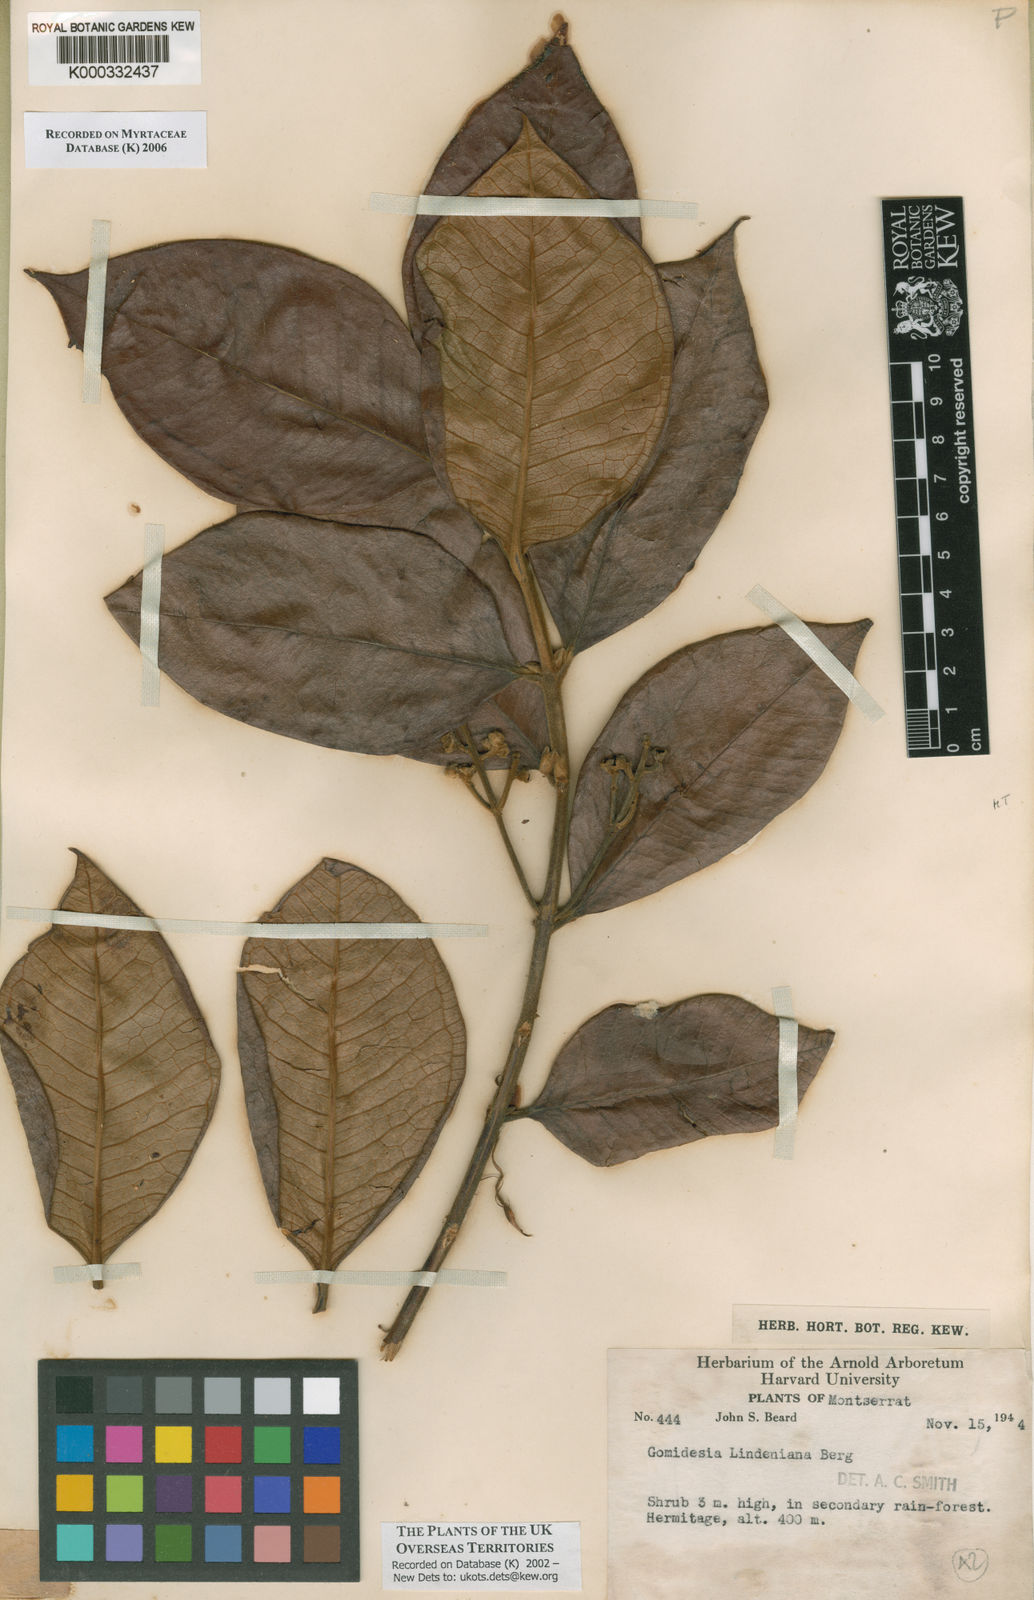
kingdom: Plantae
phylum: Tracheophyta
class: Magnoliopsida
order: Myrtales
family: Myrtaceae
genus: Myrcia
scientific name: Myrcia fenzliana
